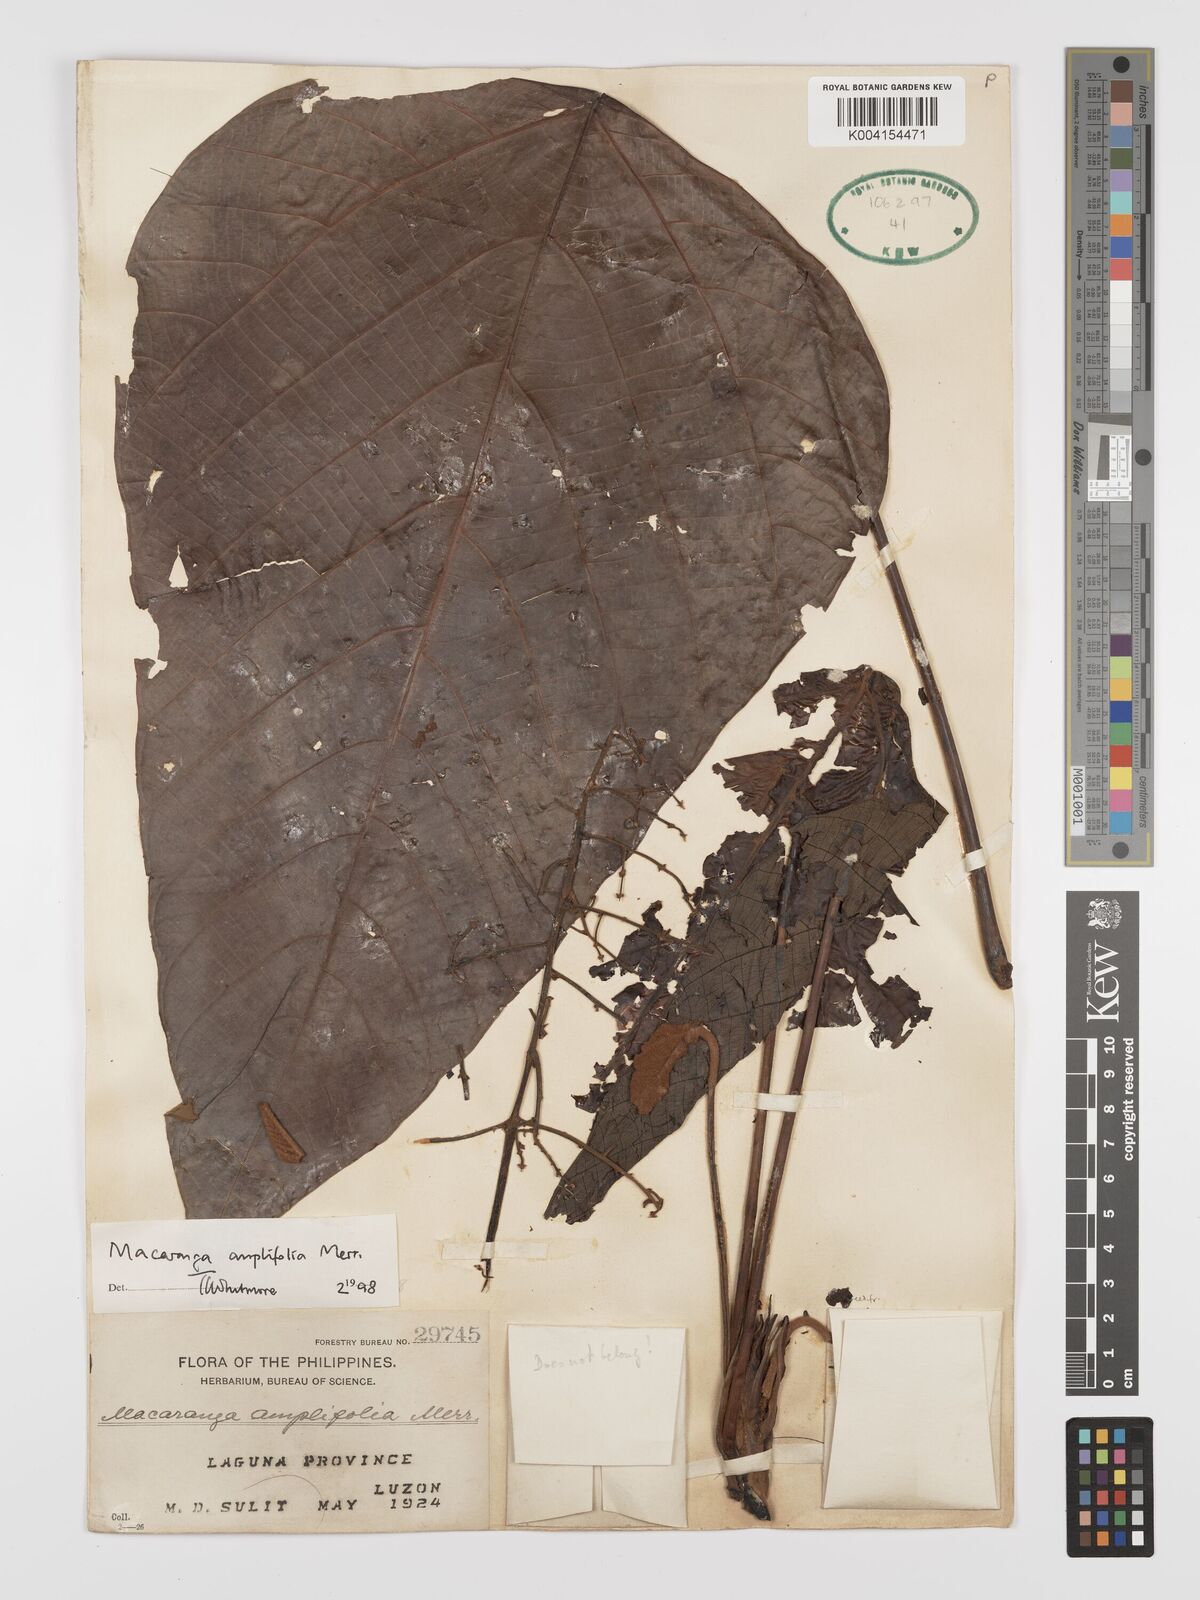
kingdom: Plantae
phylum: Tracheophyta
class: Magnoliopsida
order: Malpighiales
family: Euphorbiaceae
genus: Macaranga
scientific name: Macaranga amplifolia
